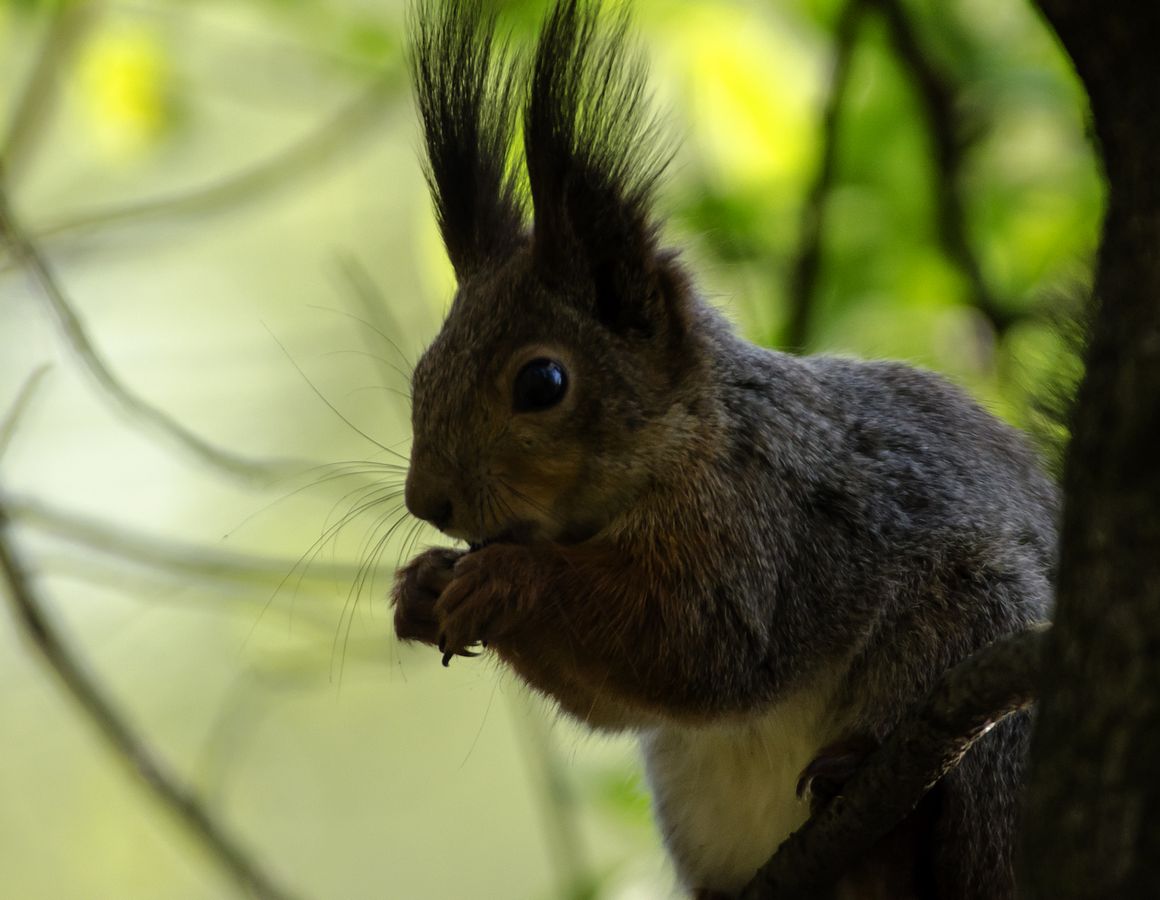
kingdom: Animalia
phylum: Chordata
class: Mammalia
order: Rodentia
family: Sciuridae
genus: Sciurus
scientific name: Sciurus vulgaris
